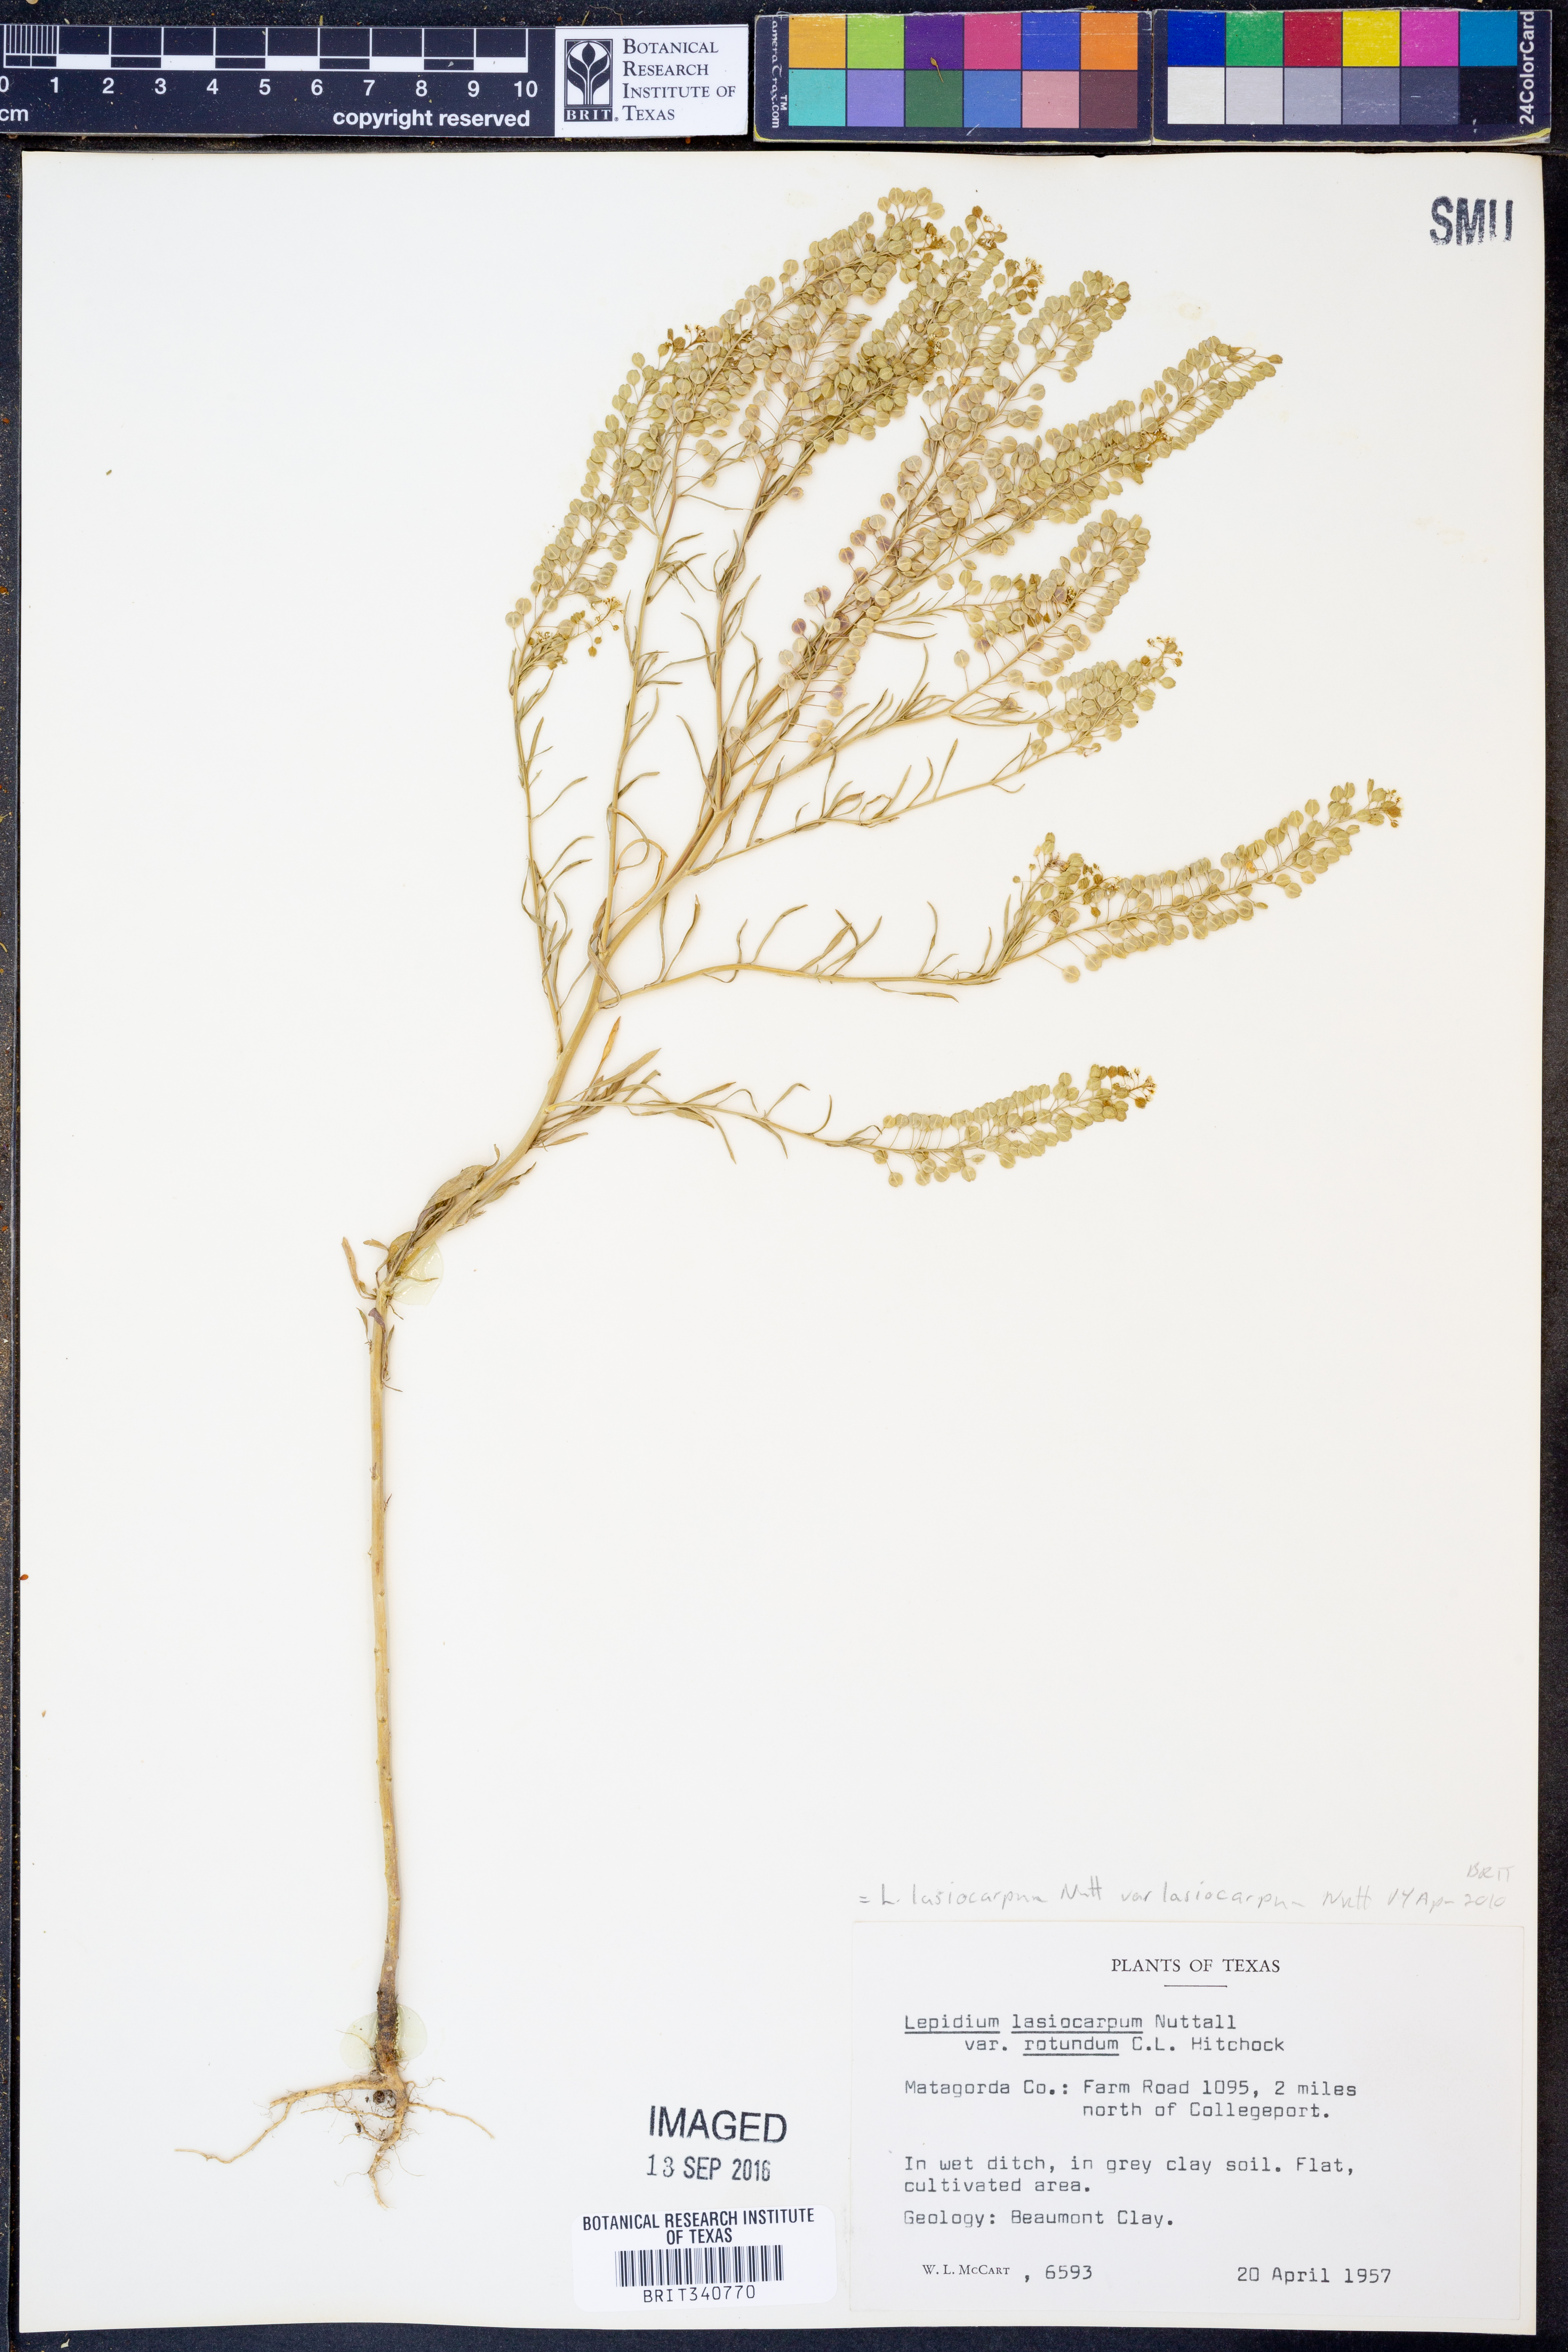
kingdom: Plantae
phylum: Tracheophyta
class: Magnoliopsida
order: Brassicales
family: Brassicaceae
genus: Lepidium
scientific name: Lepidium lasiocarpum
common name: Hairy-pod pepperwort
